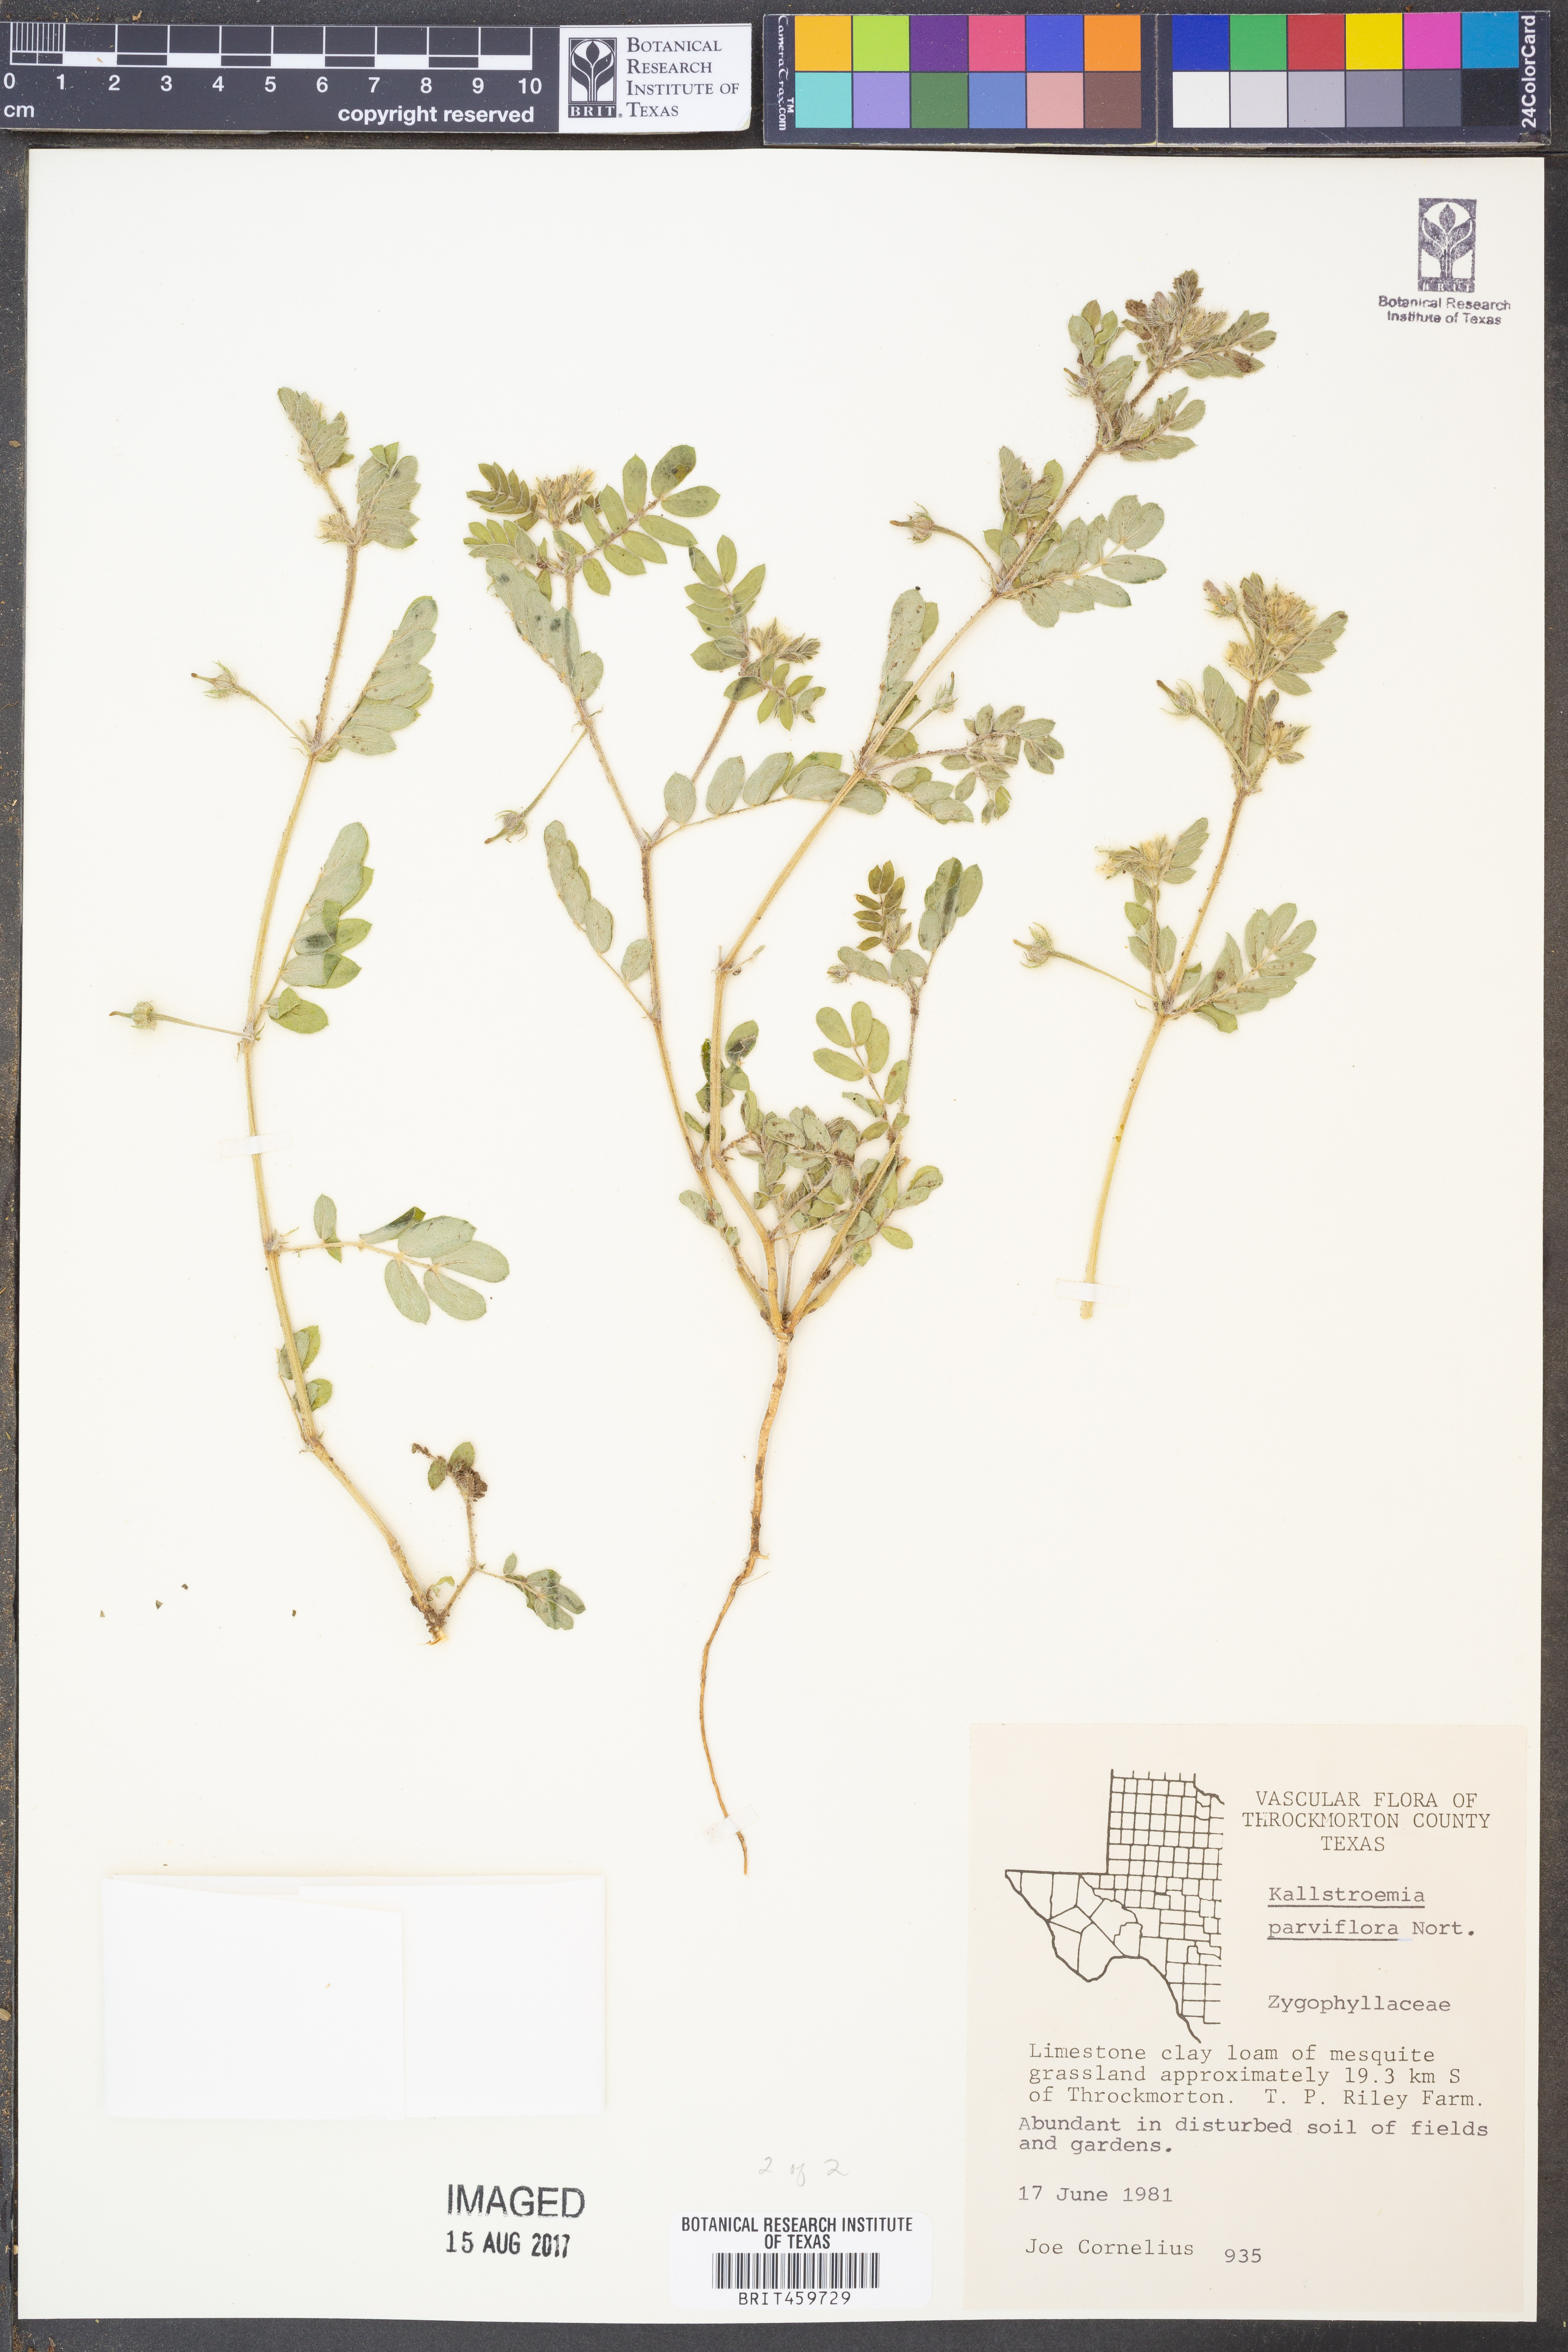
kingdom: Plantae
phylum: Tracheophyta
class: Magnoliopsida
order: Zygophyllales
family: Zygophyllaceae
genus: Kallstroemia
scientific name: Kallstroemia parviflora
